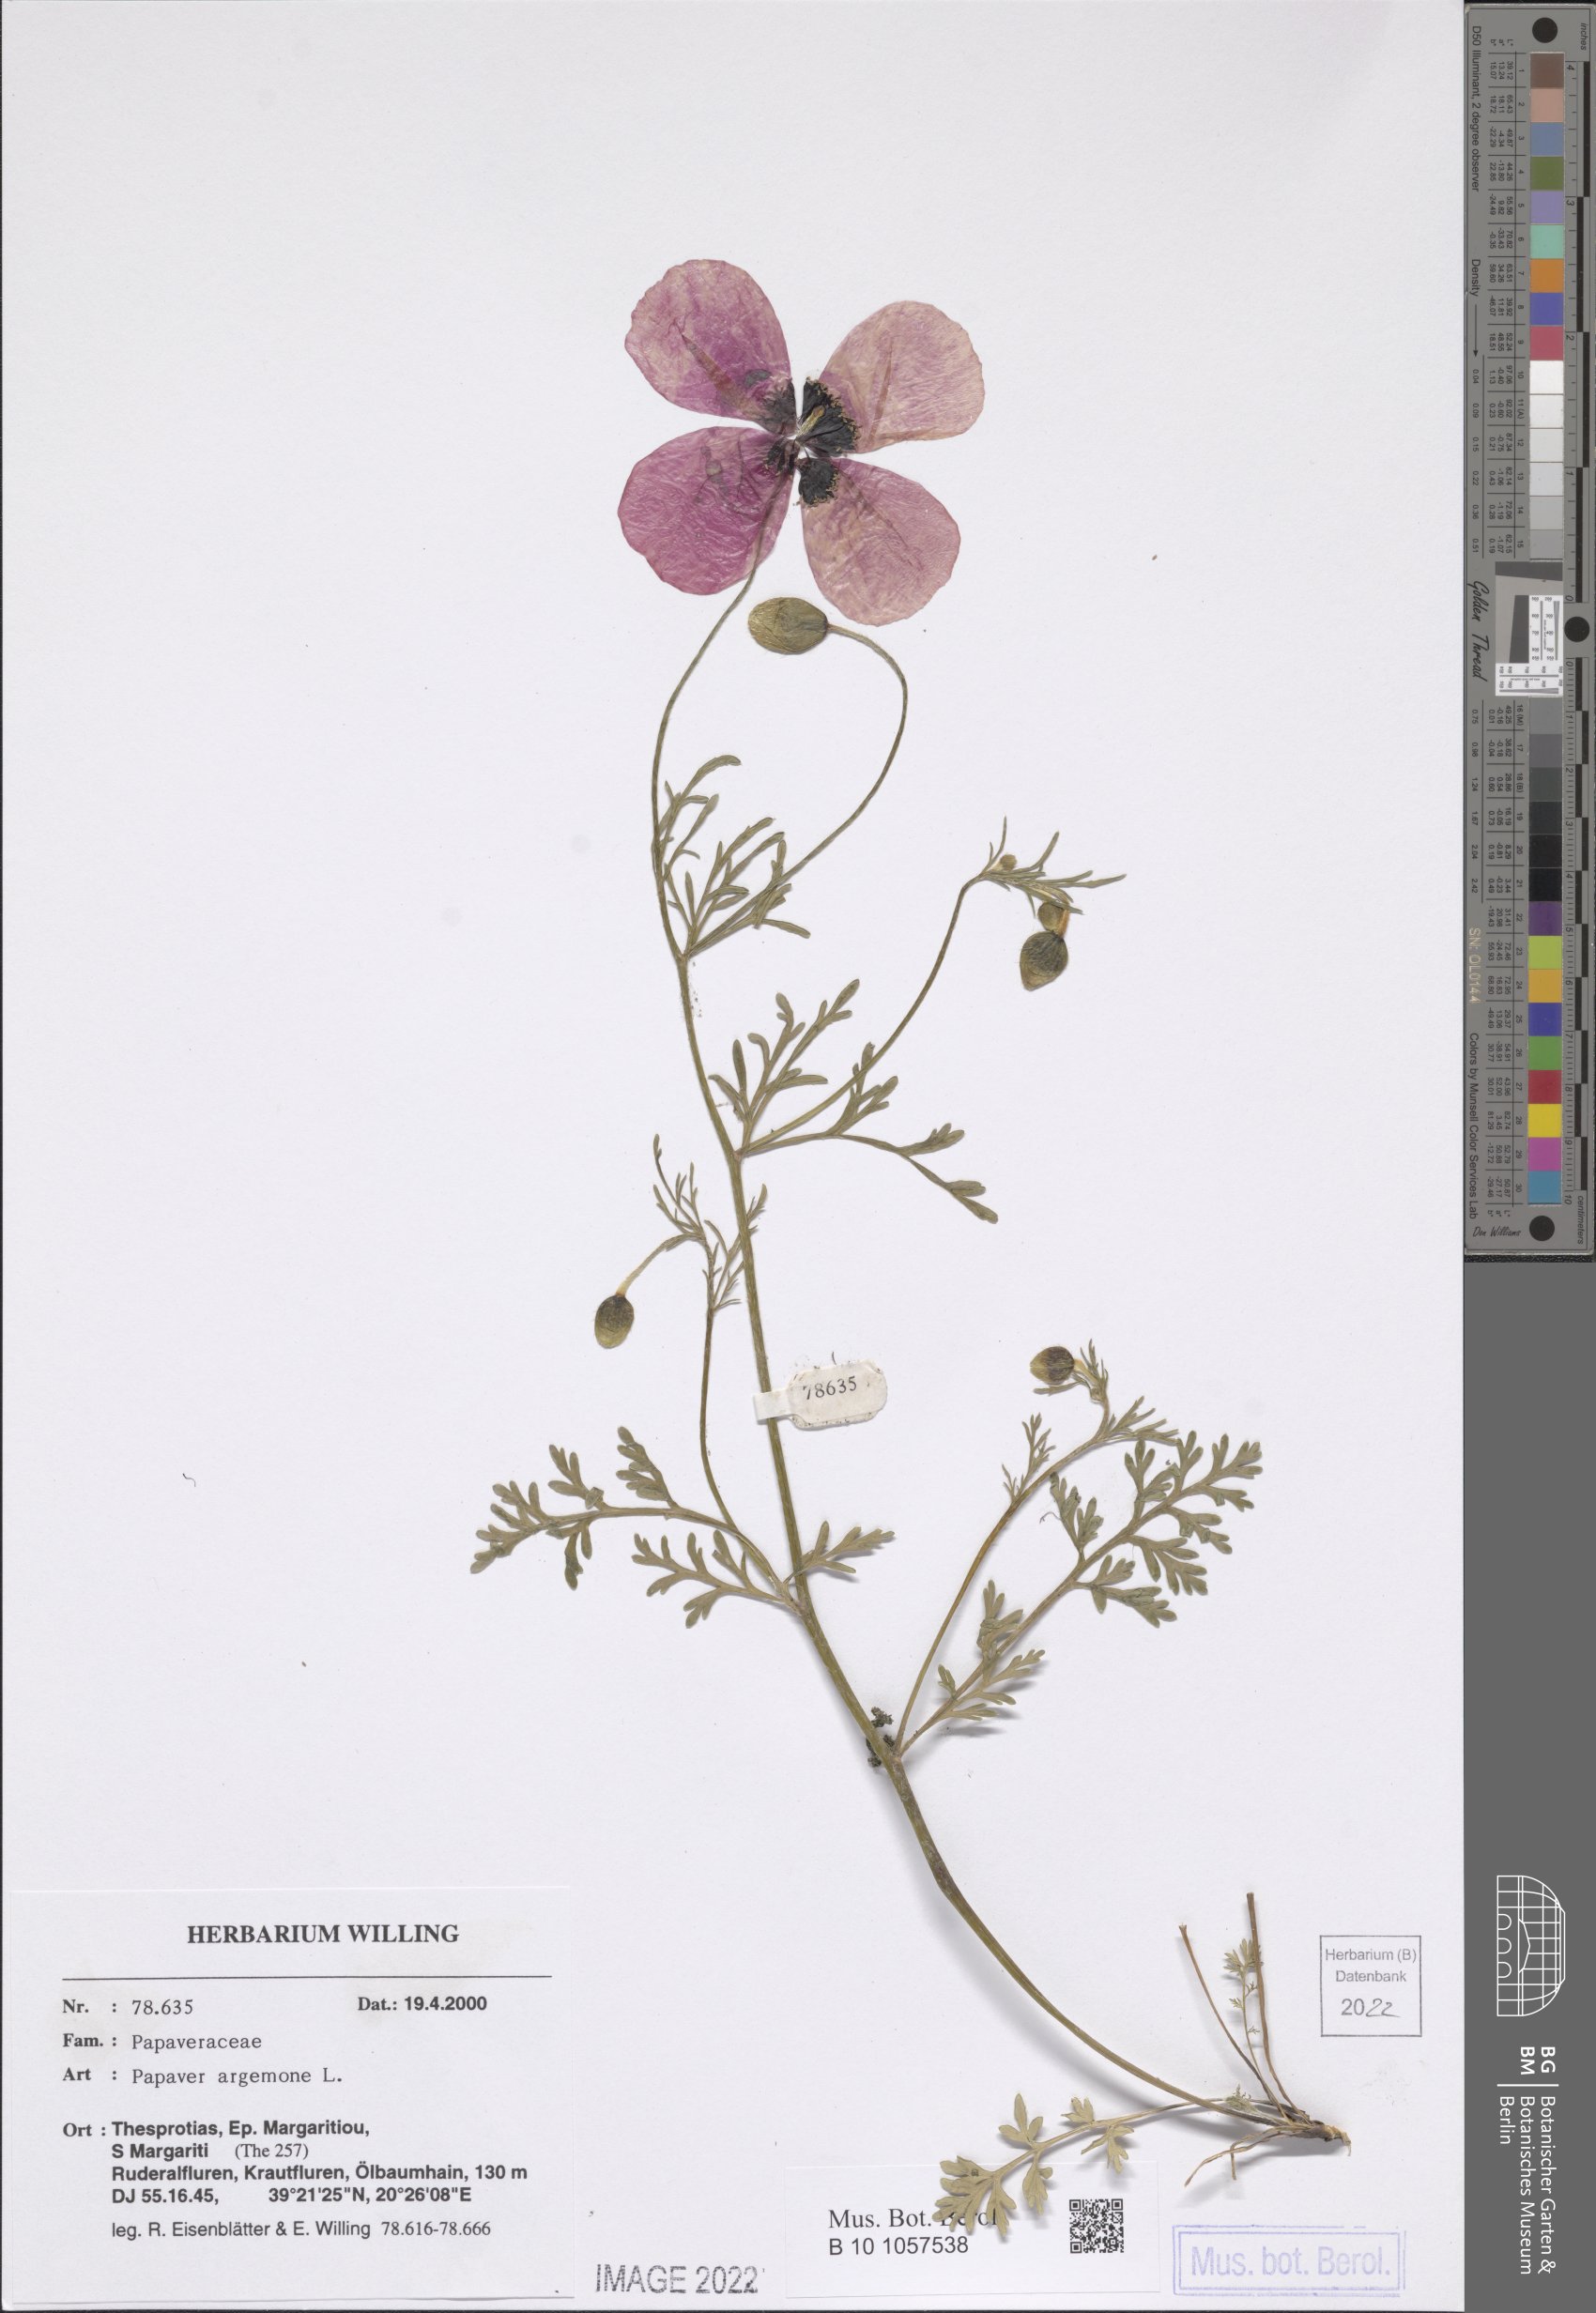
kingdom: Plantae
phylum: Tracheophyta
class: Magnoliopsida
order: Ranunculales
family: Papaveraceae
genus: Roemeria
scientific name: Roemeria argemone
